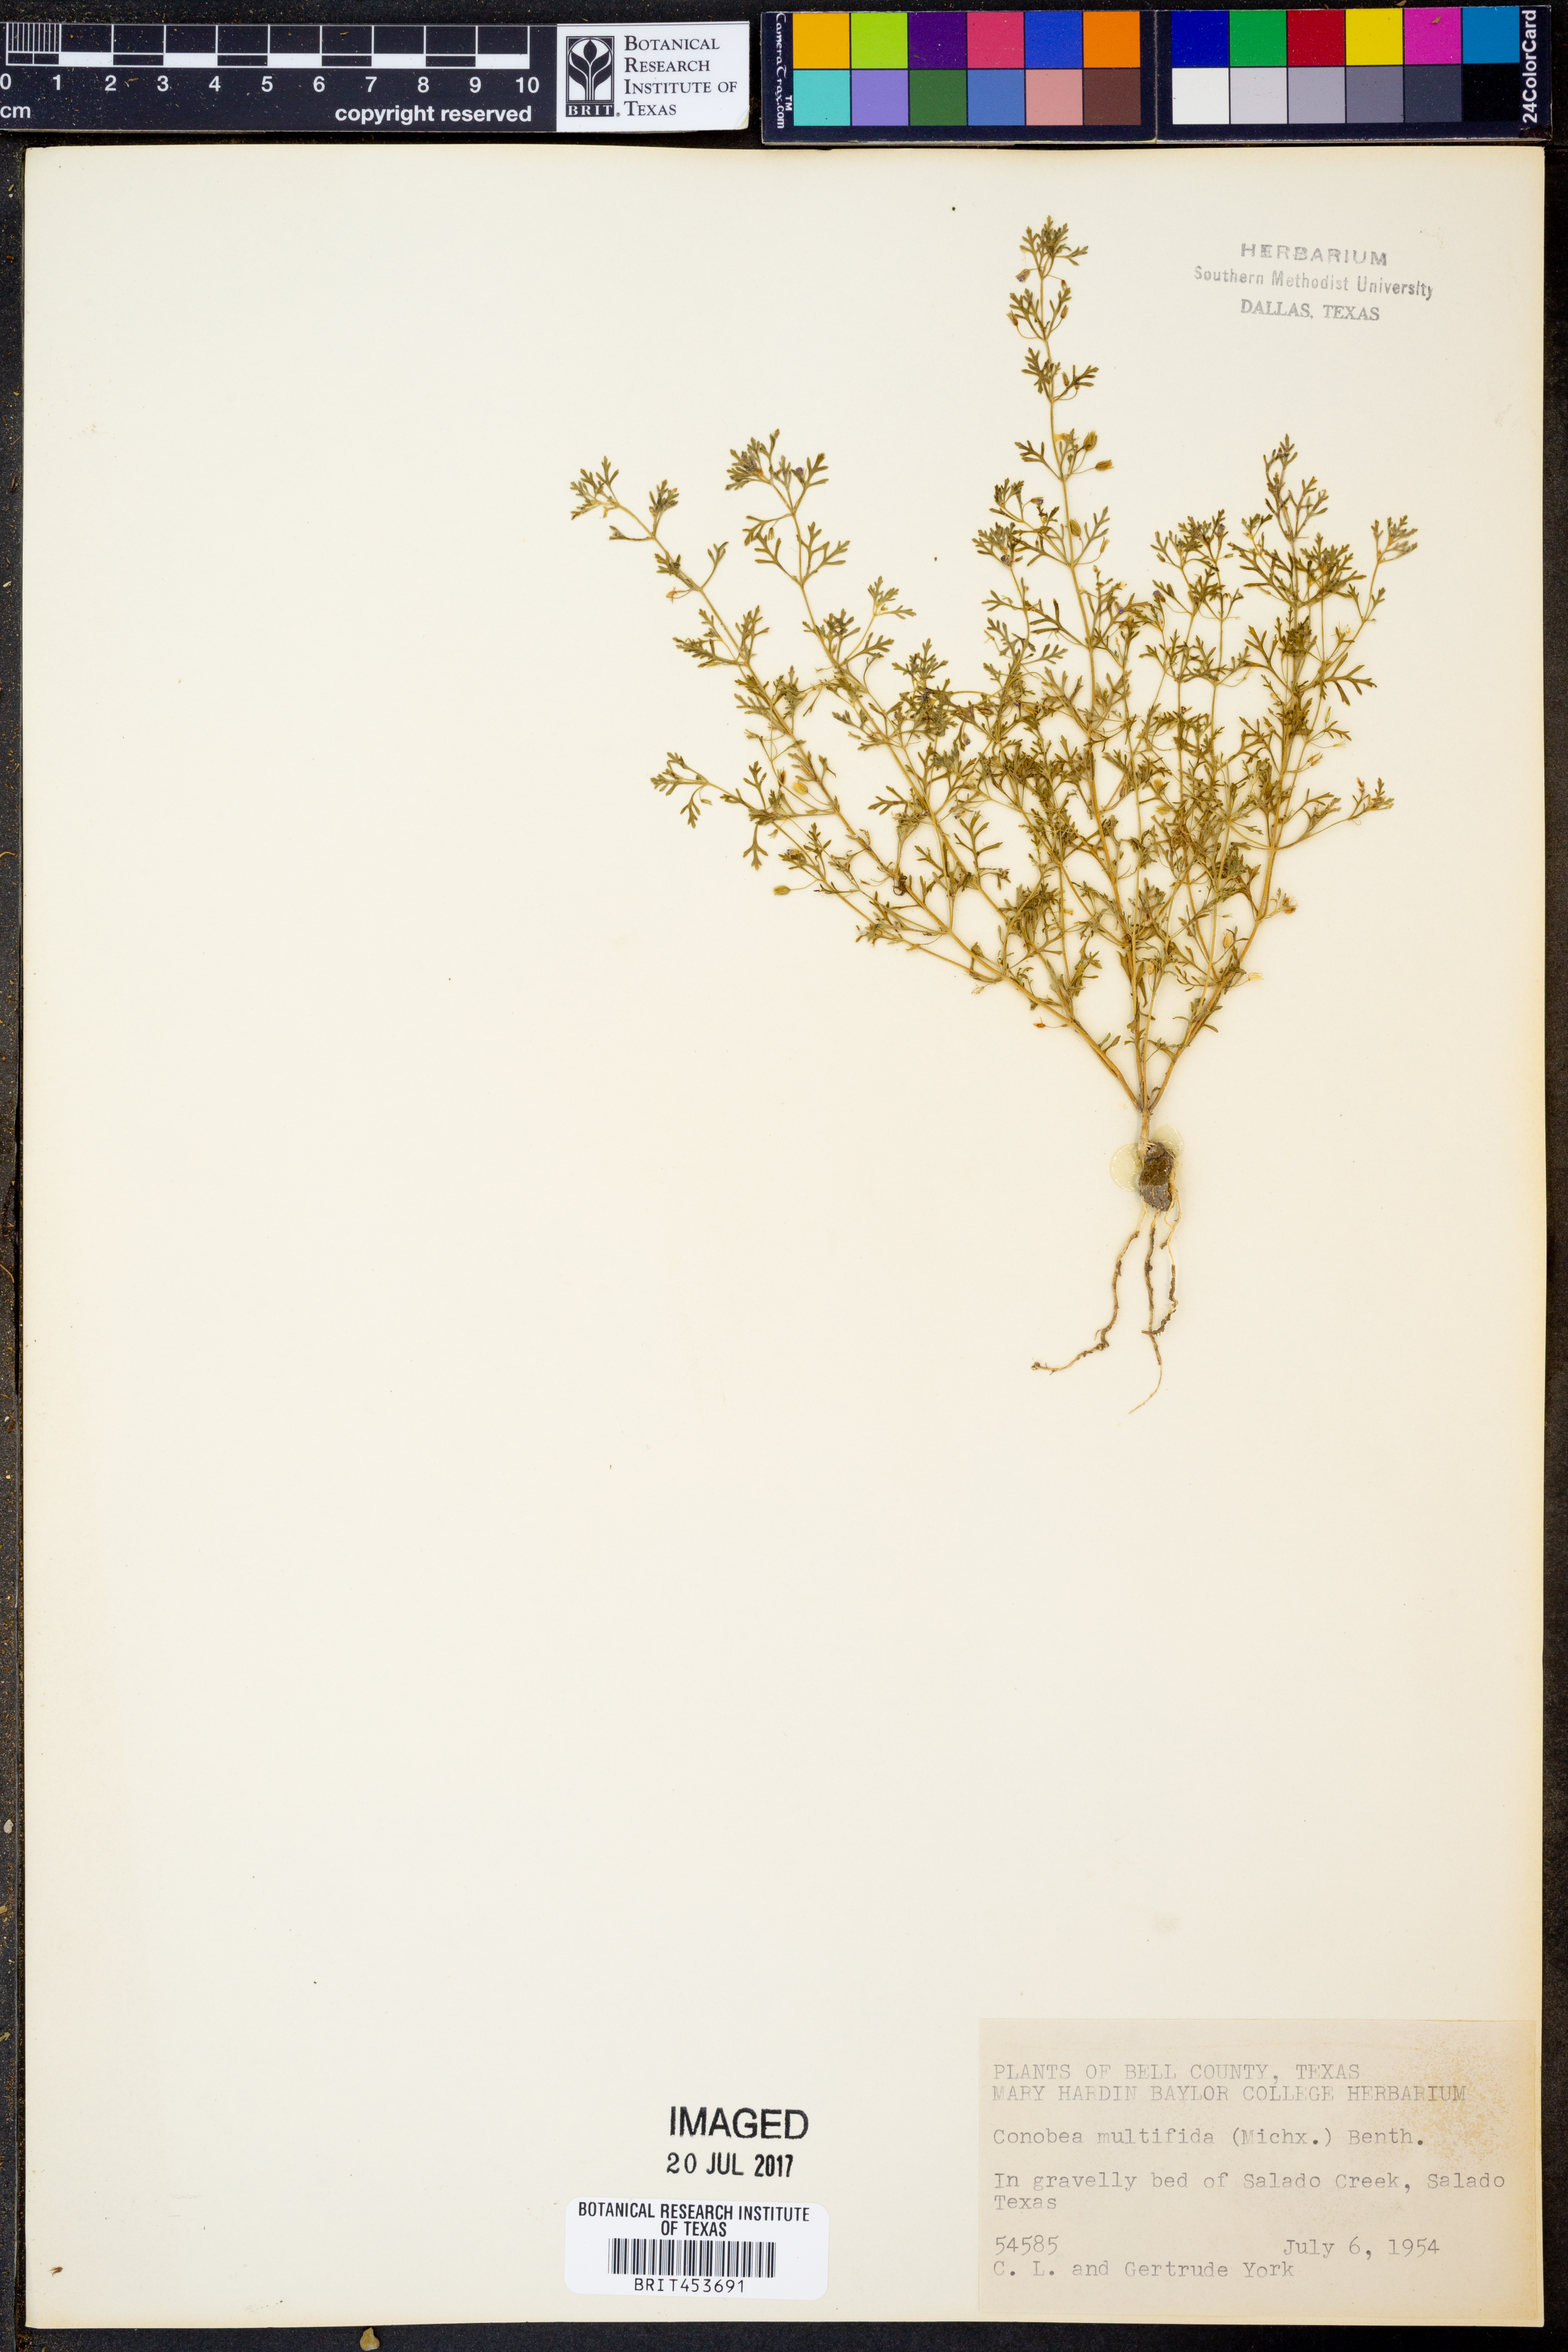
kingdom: Plantae
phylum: Tracheophyta
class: Magnoliopsida
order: Lamiales
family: Plantaginaceae
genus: Leucospora
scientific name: Leucospora multifida
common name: Narrow-leaf paleseed
